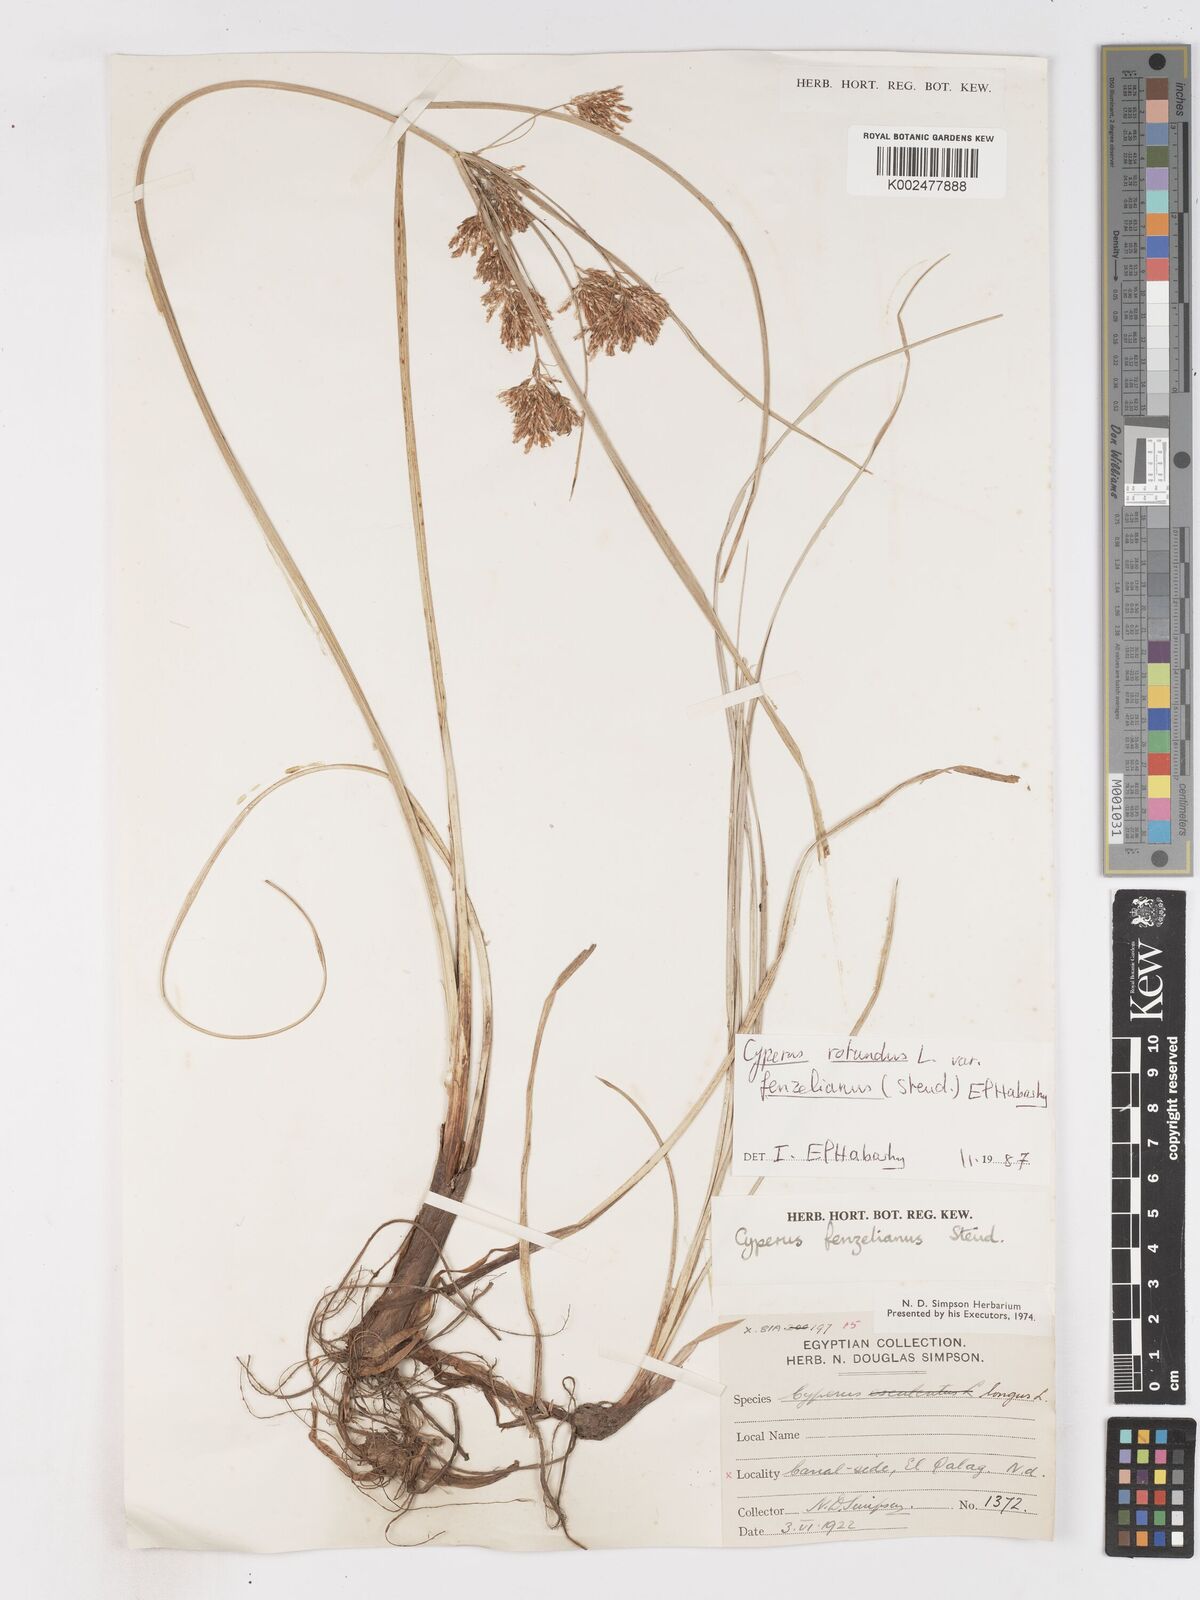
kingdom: Plantae
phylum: Tracheophyta
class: Liliopsida
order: Poales
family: Cyperaceae
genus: Cyperus
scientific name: Cyperus longus
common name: Galingale
